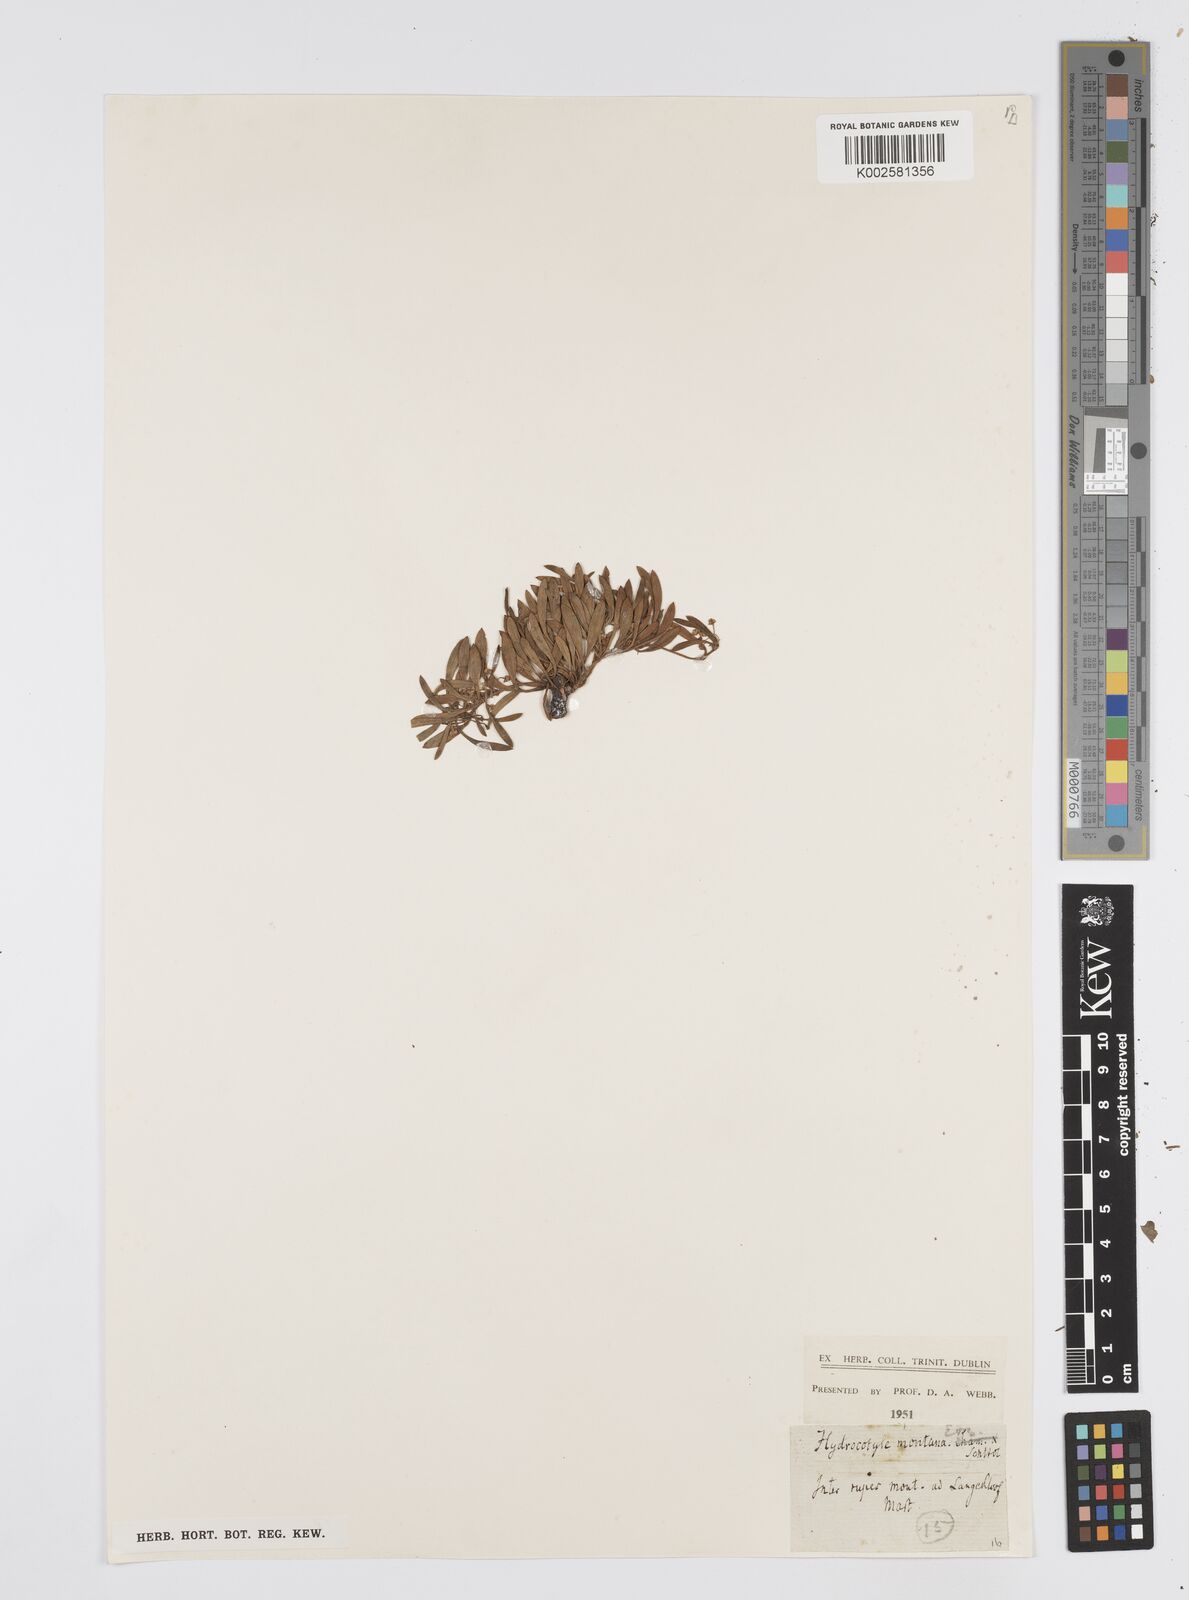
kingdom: Plantae
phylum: Tracheophyta
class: Magnoliopsida
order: Apiales
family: Apiaceae
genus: Centella
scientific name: Centella
